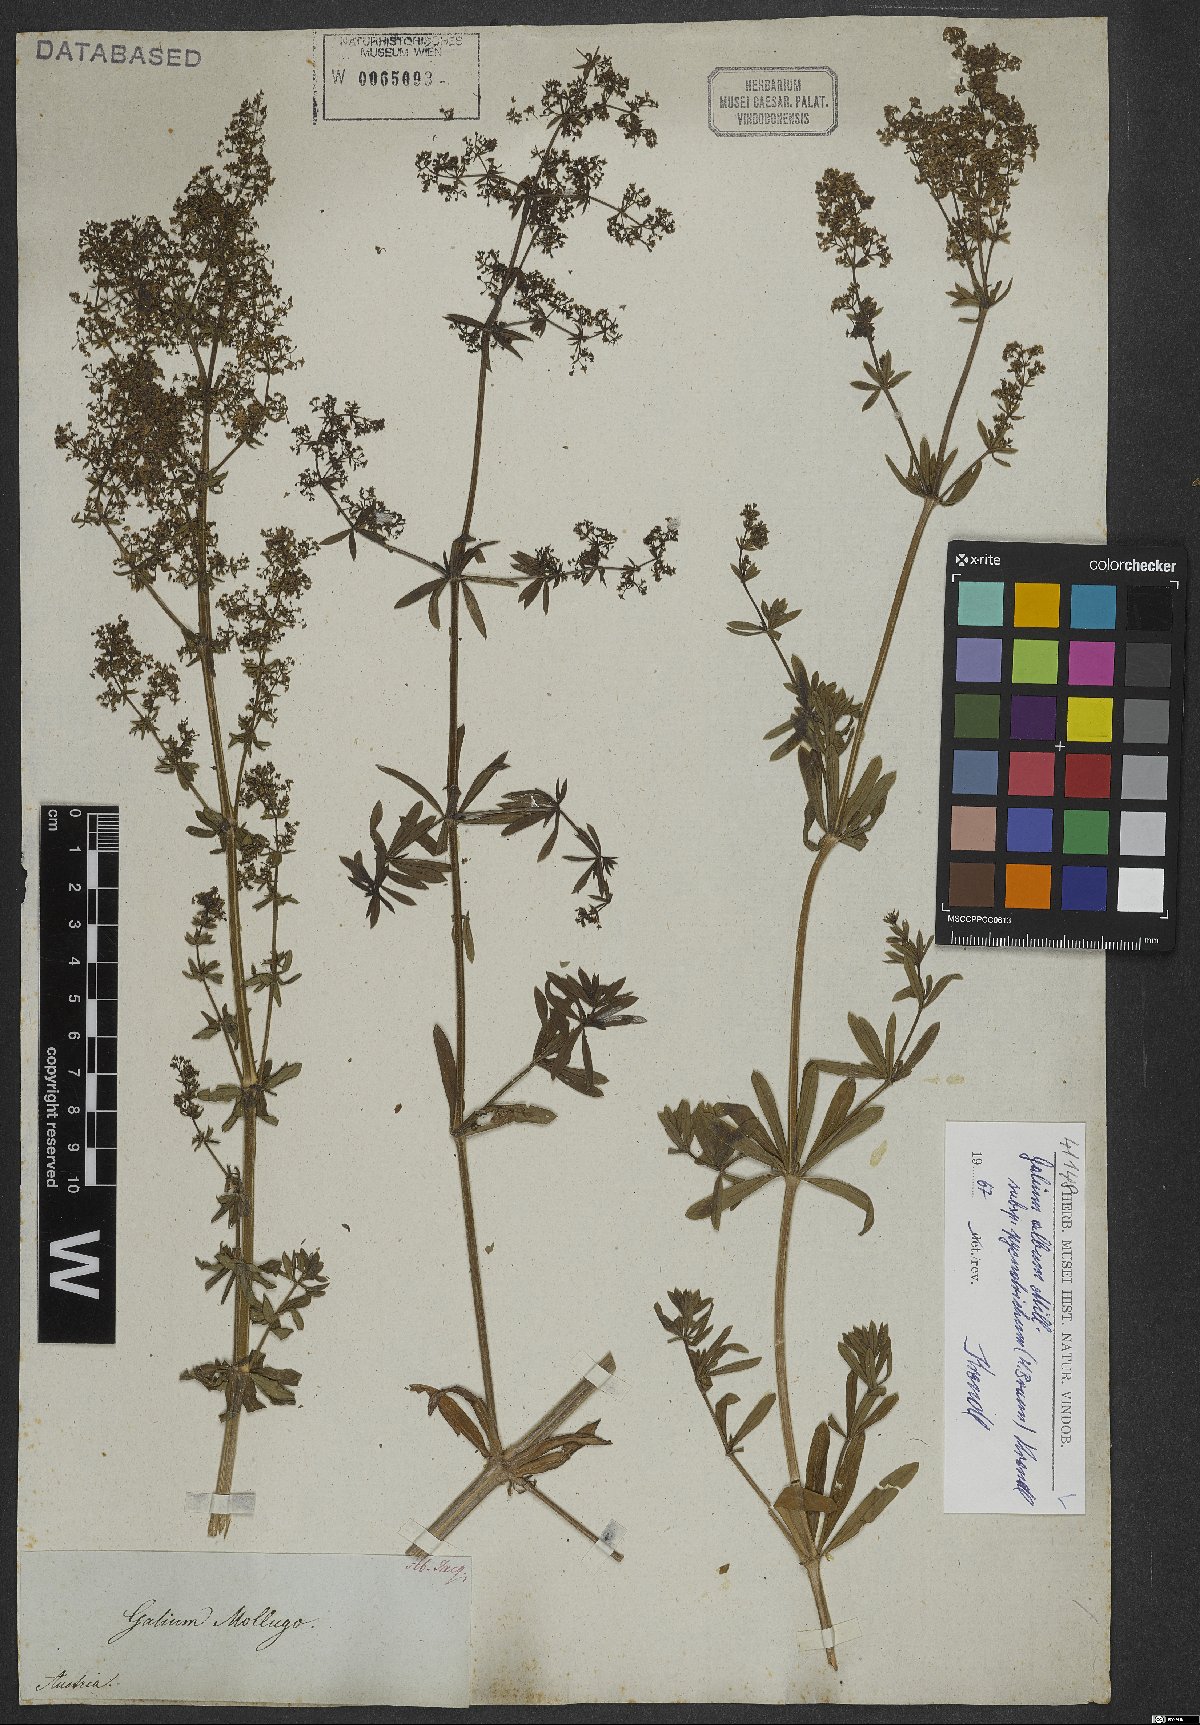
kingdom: Plantae
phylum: Tracheophyta
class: Magnoliopsida
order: Gentianales
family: Rubiaceae
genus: Galium
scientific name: Galium album
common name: White bedstraw
